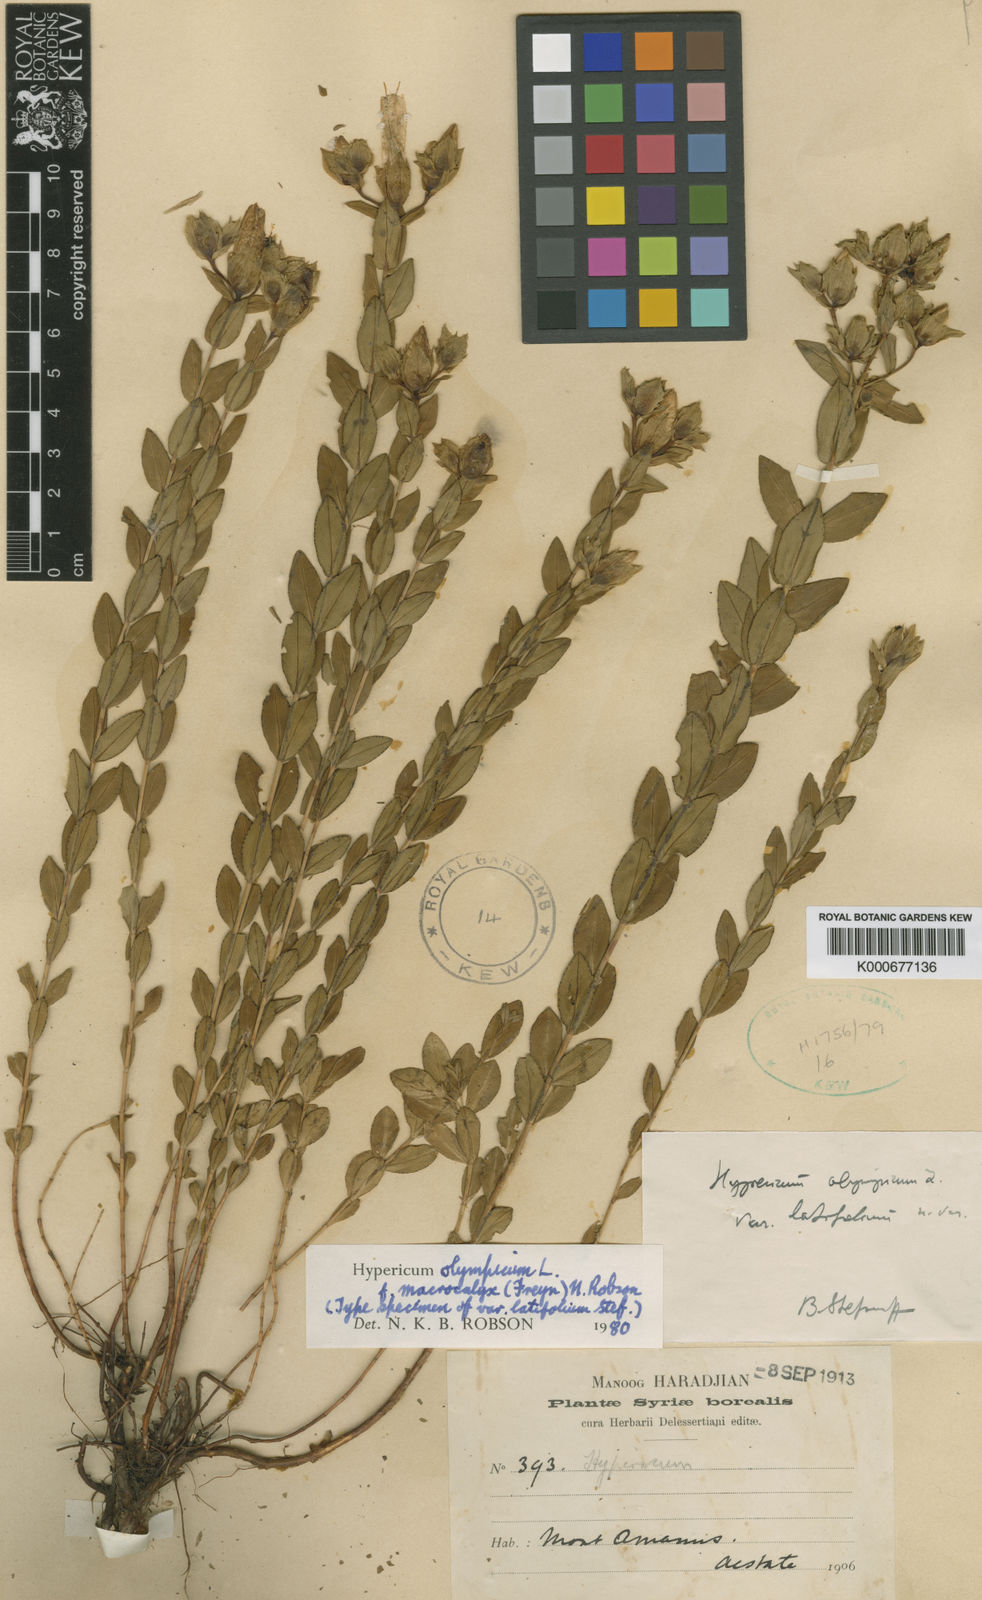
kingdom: Plantae
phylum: Tracheophyta
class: Magnoliopsida
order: Malpighiales
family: Hypericaceae
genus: Hypericum
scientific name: Hypericum olympicum
